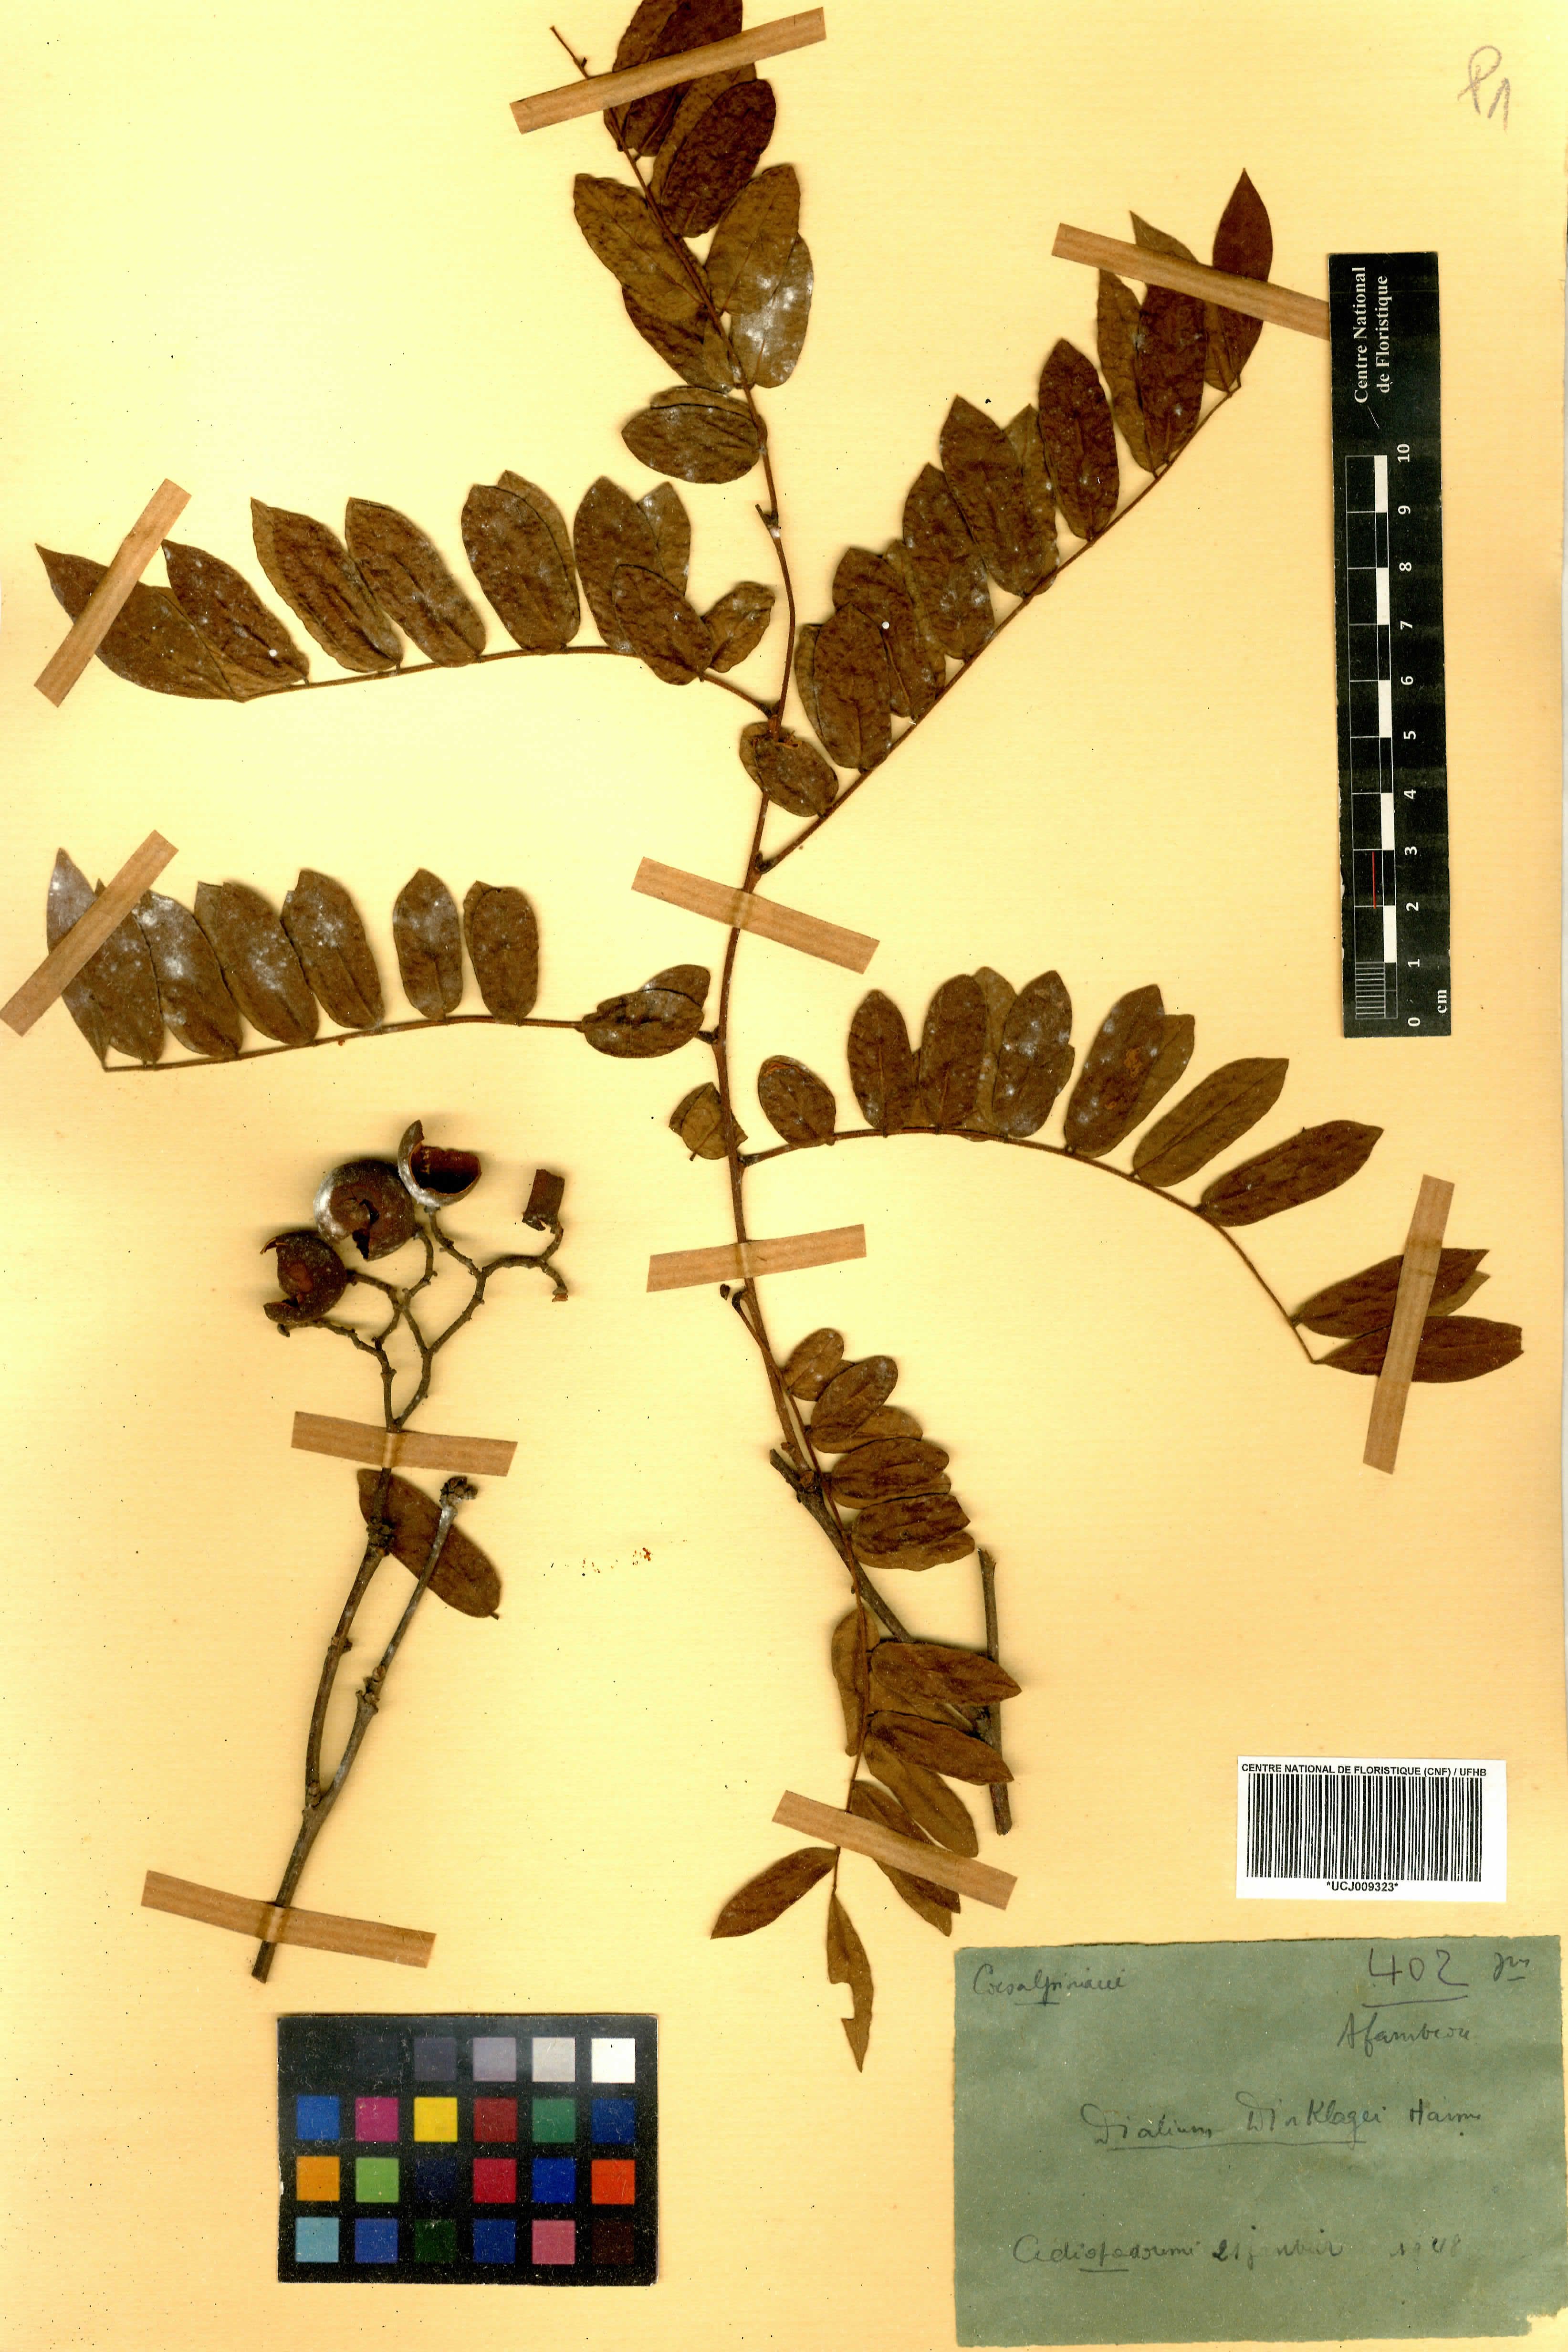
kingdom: Plantae
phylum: Tracheophyta
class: Magnoliopsida
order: Fabales
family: Fabaceae
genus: Dialium
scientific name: Dialium dinklagei
